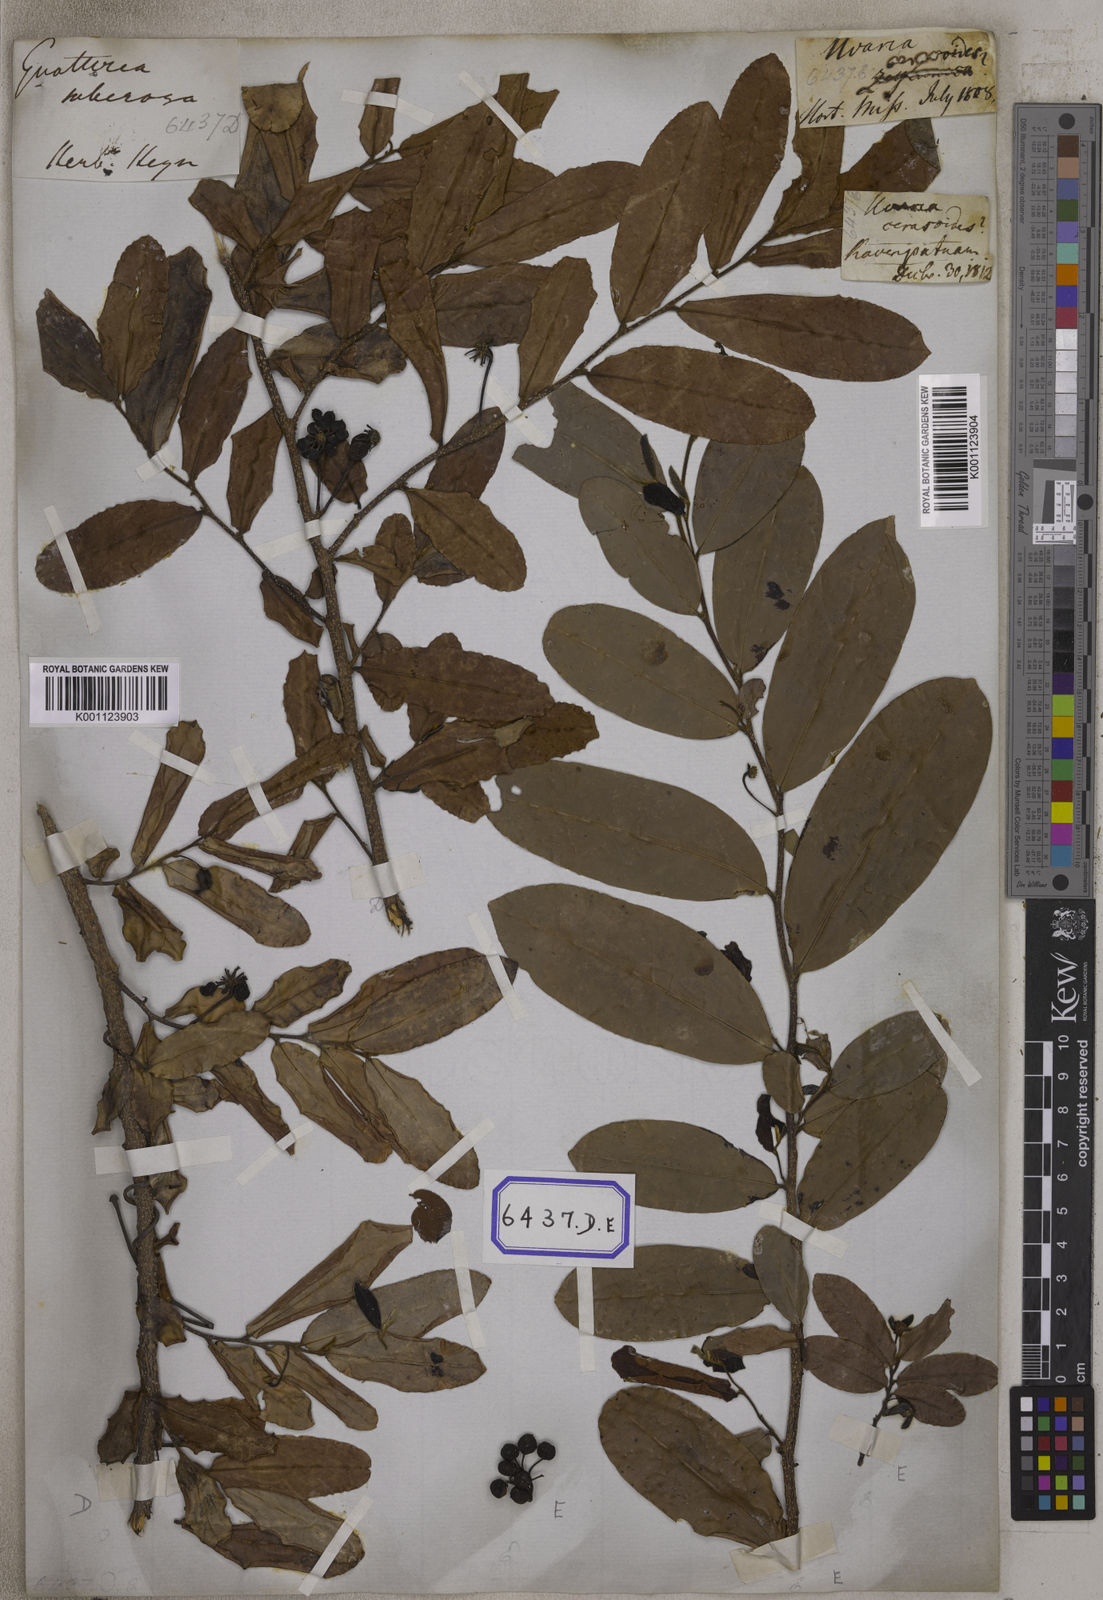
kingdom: Plantae
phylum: Tracheophyta
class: Magnoliopsida
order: Magnoliales
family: Annonaceae
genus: Polyalthia
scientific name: Polyalthia suberosa
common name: Polyalthia plant
